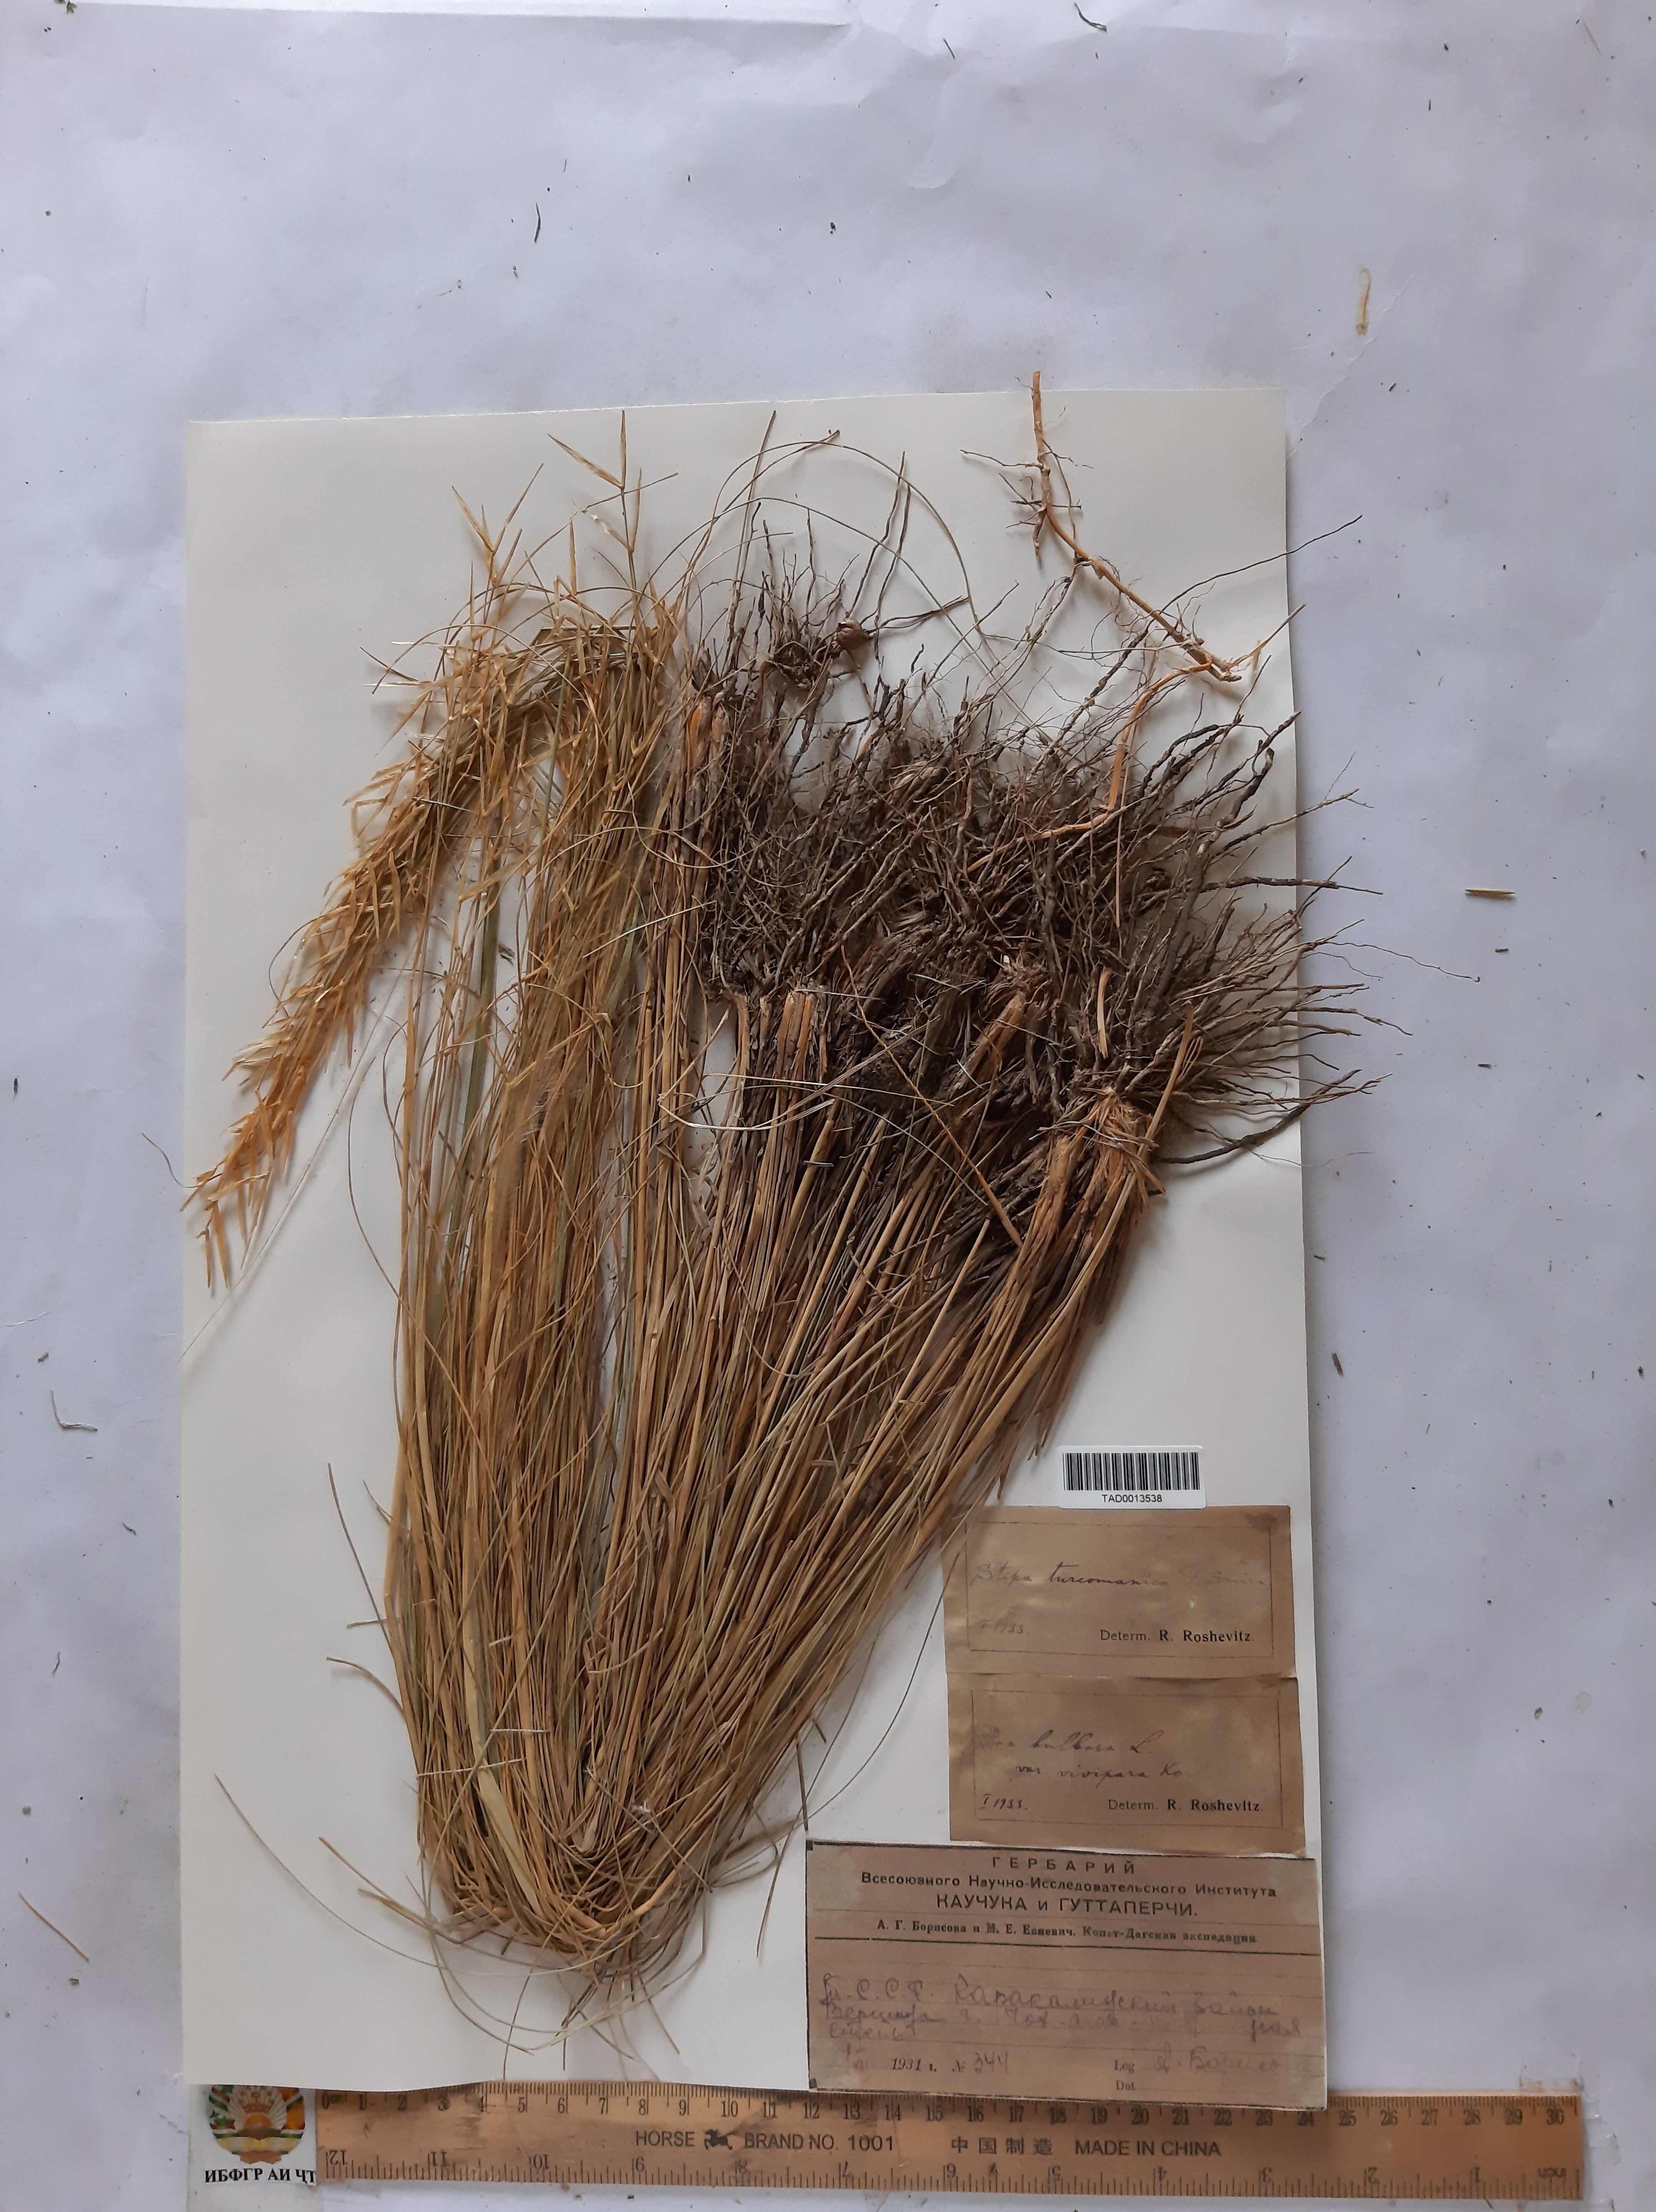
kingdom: Plantae
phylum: Tracheophyta
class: Liliopsida
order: Poales
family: Poaceae
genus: Stipa
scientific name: Stipa zalesskyi
